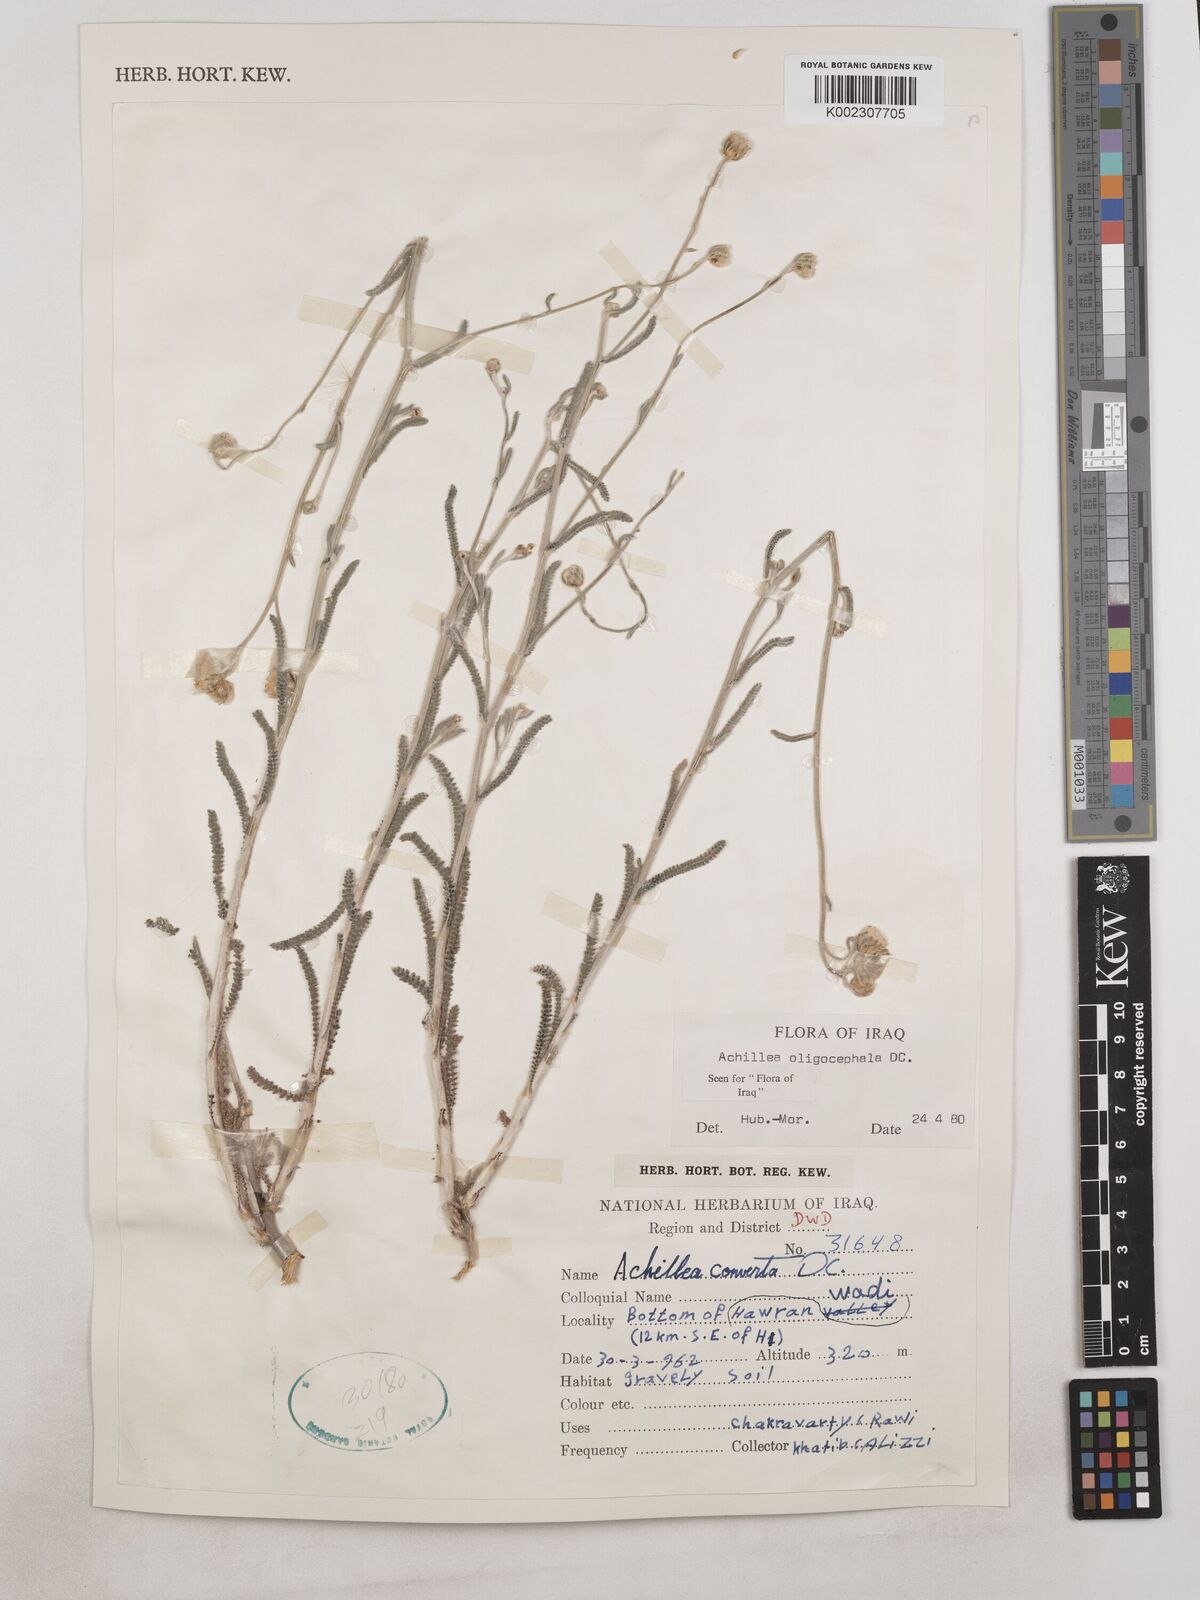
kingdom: Plantae
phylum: Tracheophyta
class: Magnoliopsida
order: Asterales
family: Asteraceae
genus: Achillea
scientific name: Achillea oligocephala
